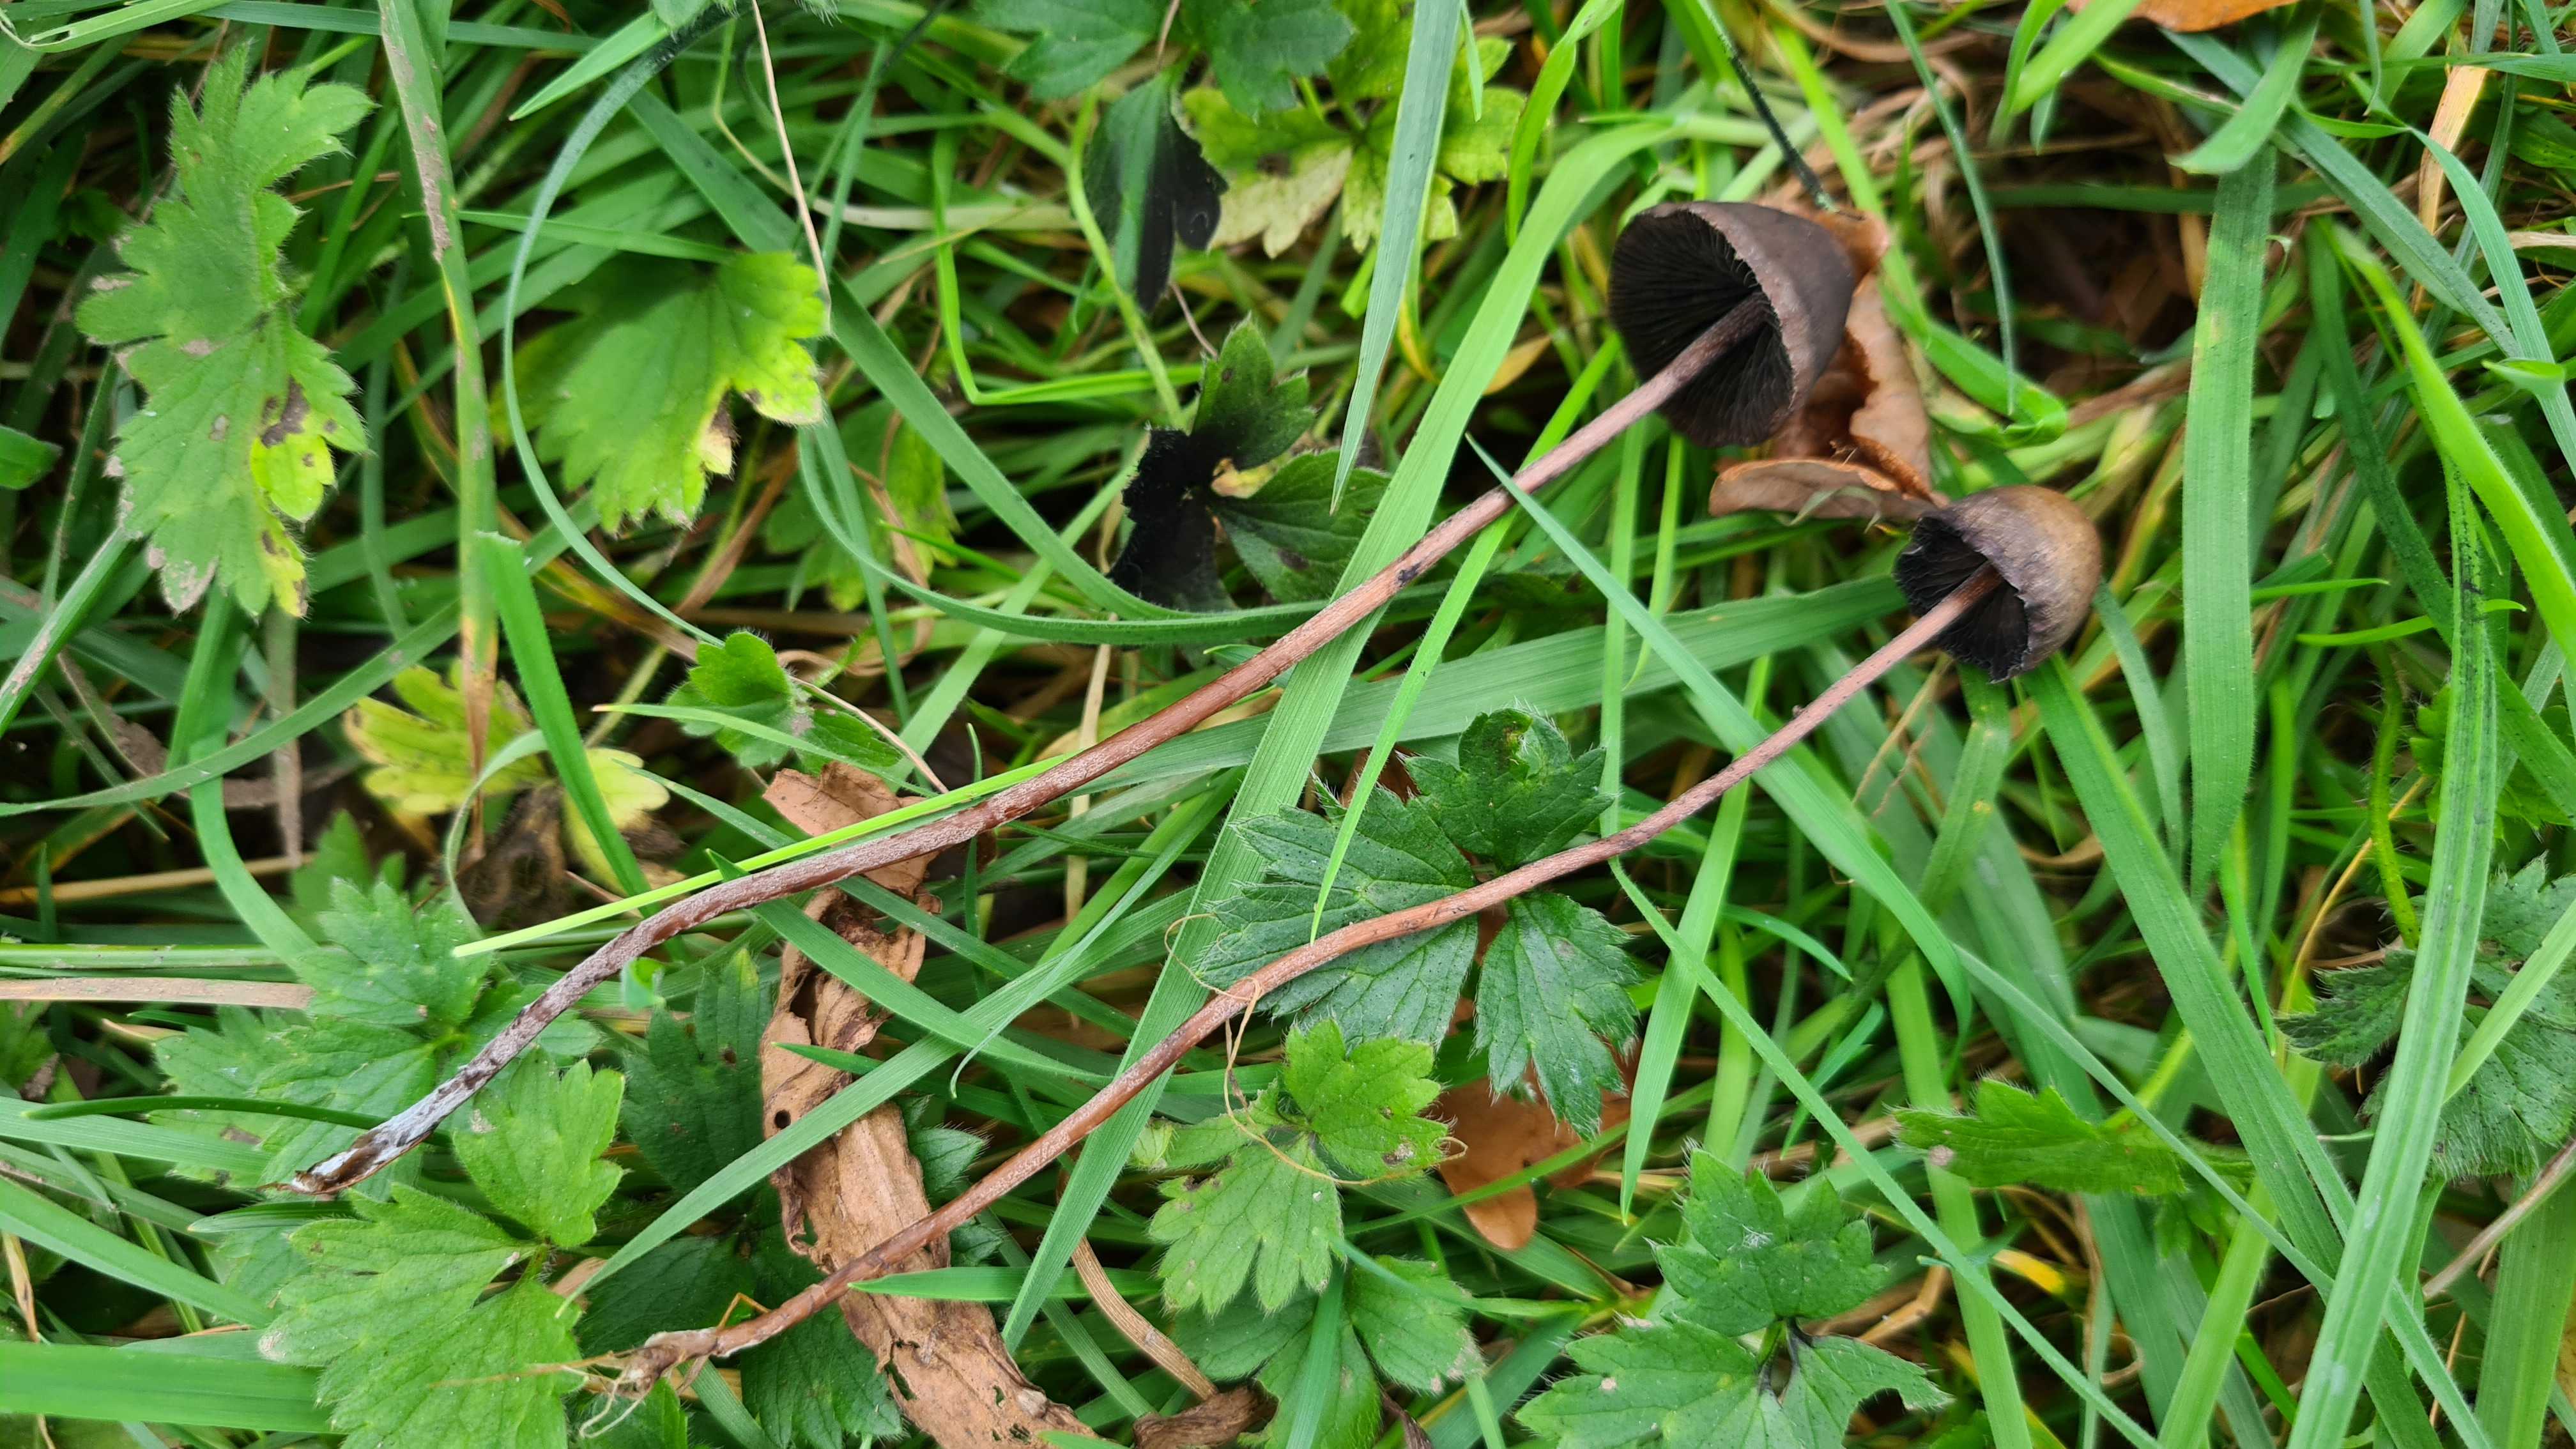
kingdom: Fungi
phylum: Basidiomycota
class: Agaricomycetes
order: Agaricales
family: Bolbitiaceae
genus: Panaeolus
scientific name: Panaeolus acuminatus
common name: høj glanshat
